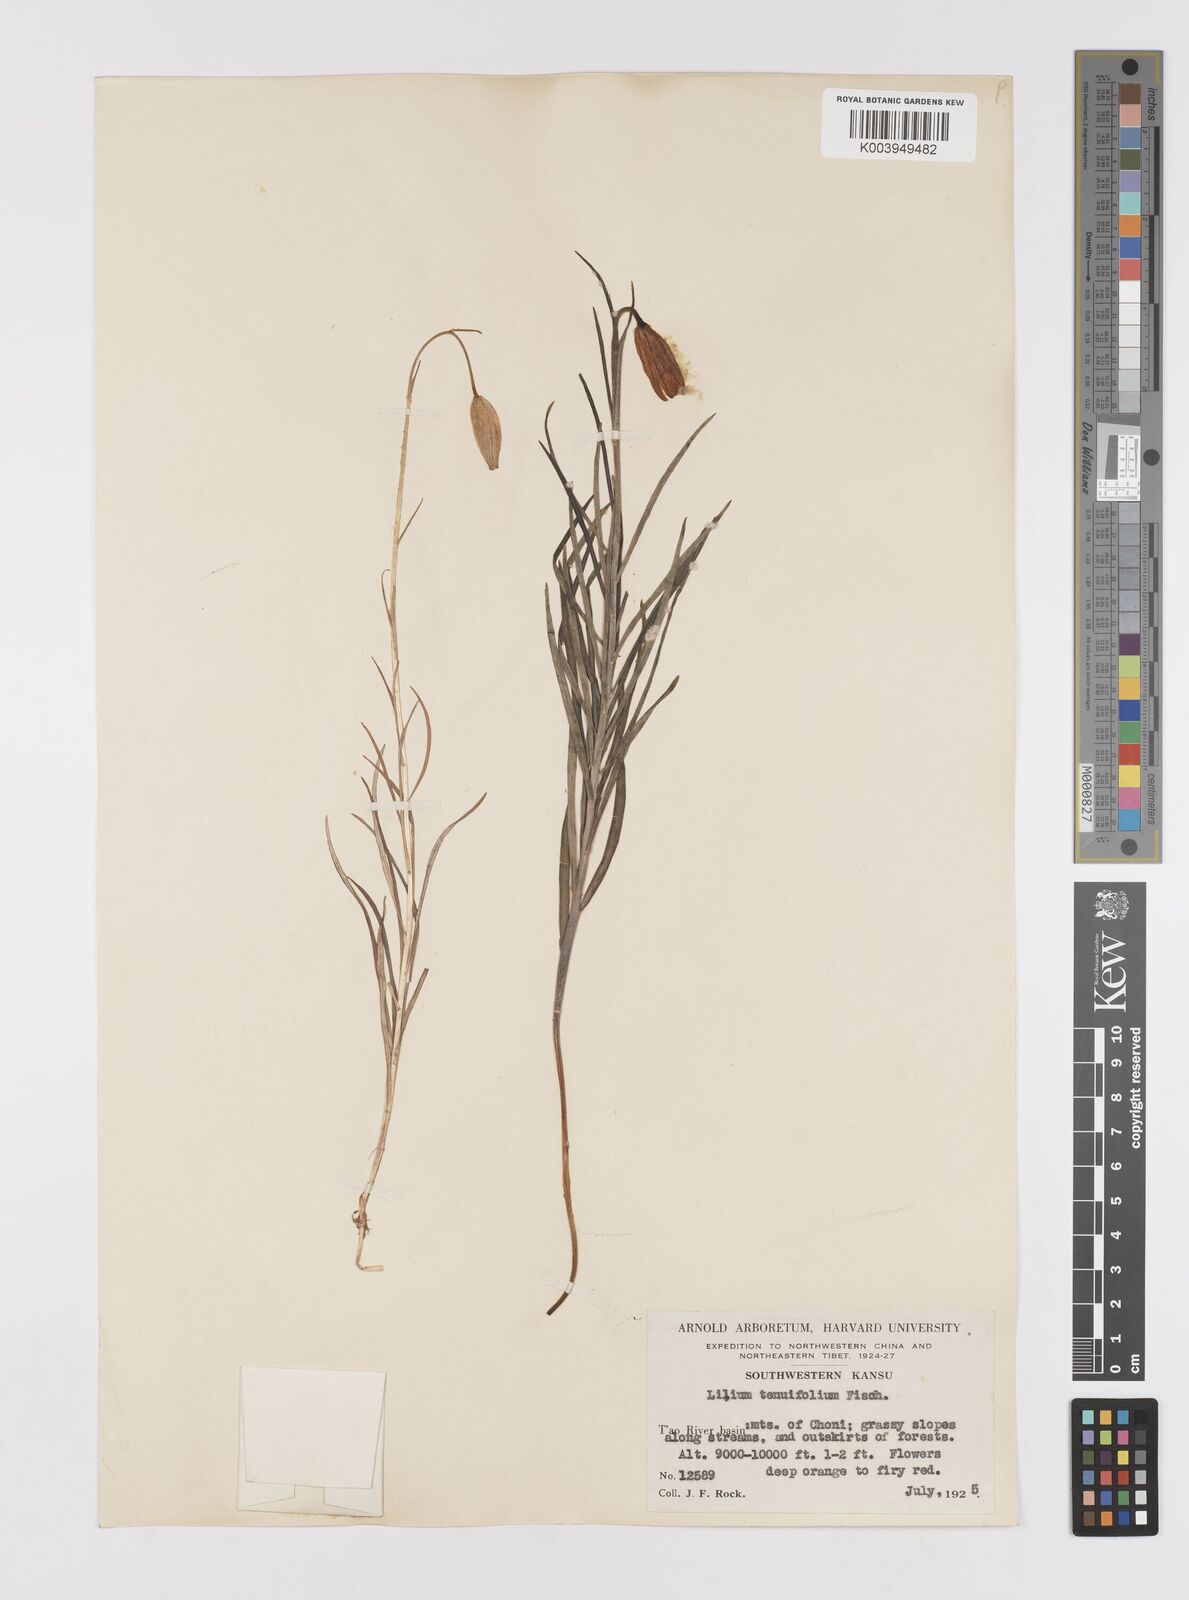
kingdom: Plantae
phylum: Tracheophyta
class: Liliopsida
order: Liliales
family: Liliaceae
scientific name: Liliaceae
